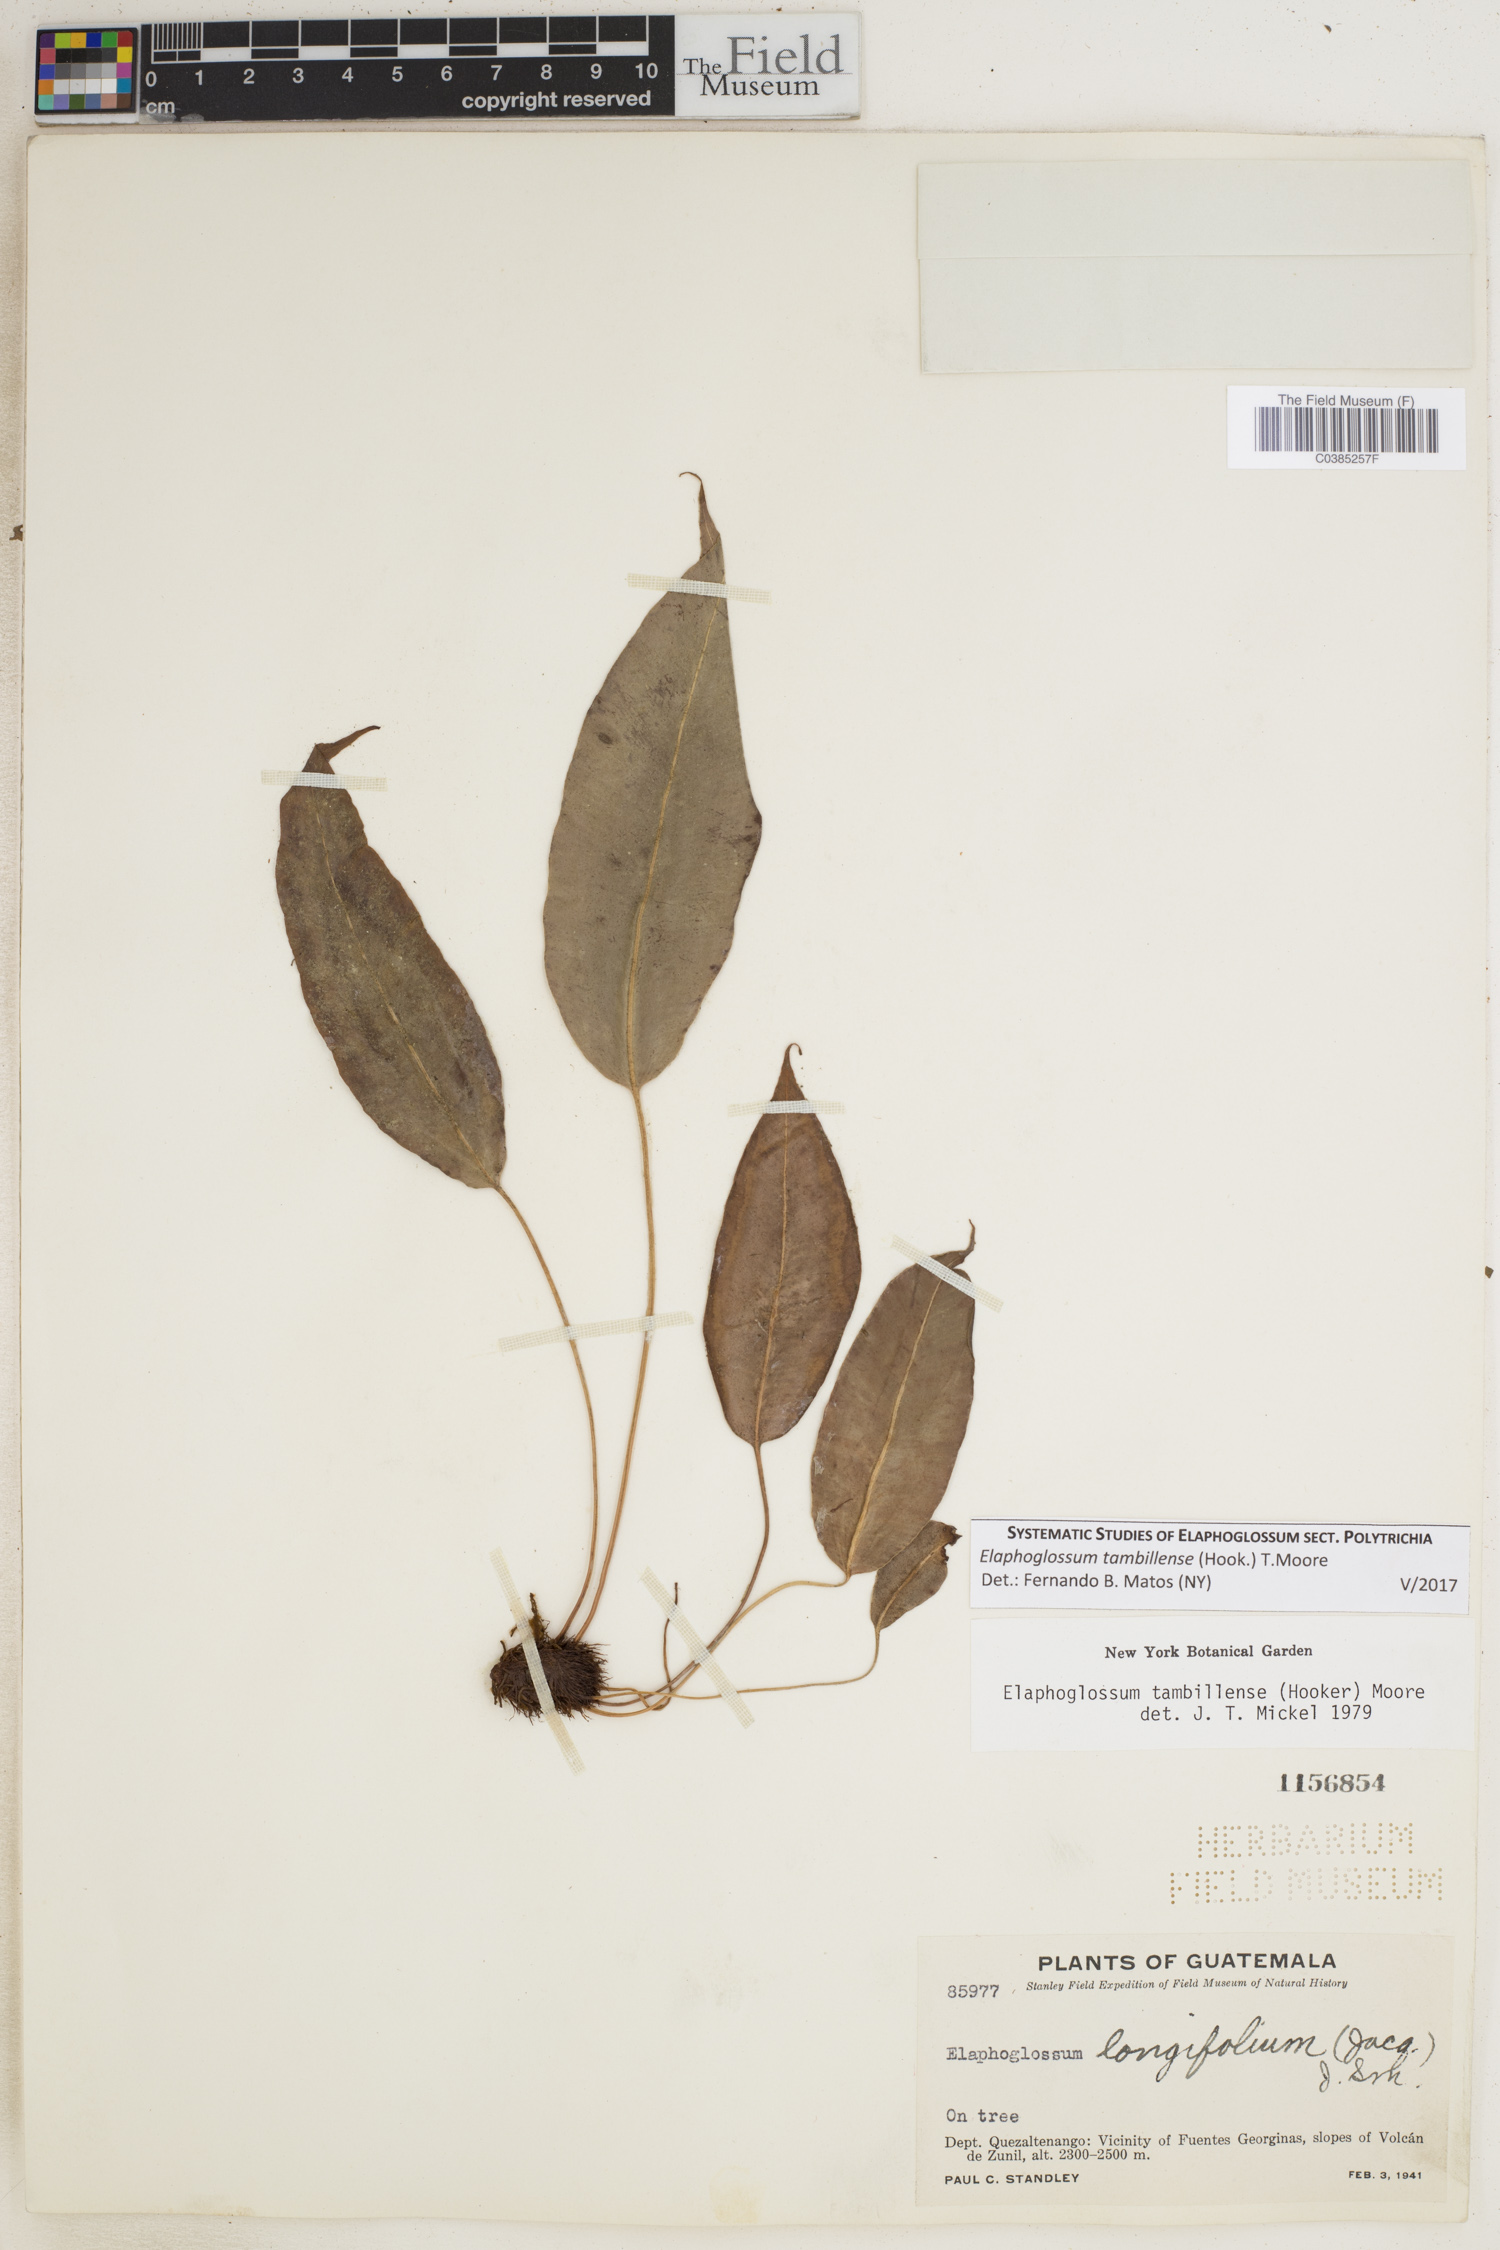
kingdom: Plantae
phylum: Tracheophyta
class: Polypodiopsida
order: Polypodiales
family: Dryopteridaceae
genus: Elaphoglossum
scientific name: Elaphoglossum tambillense
